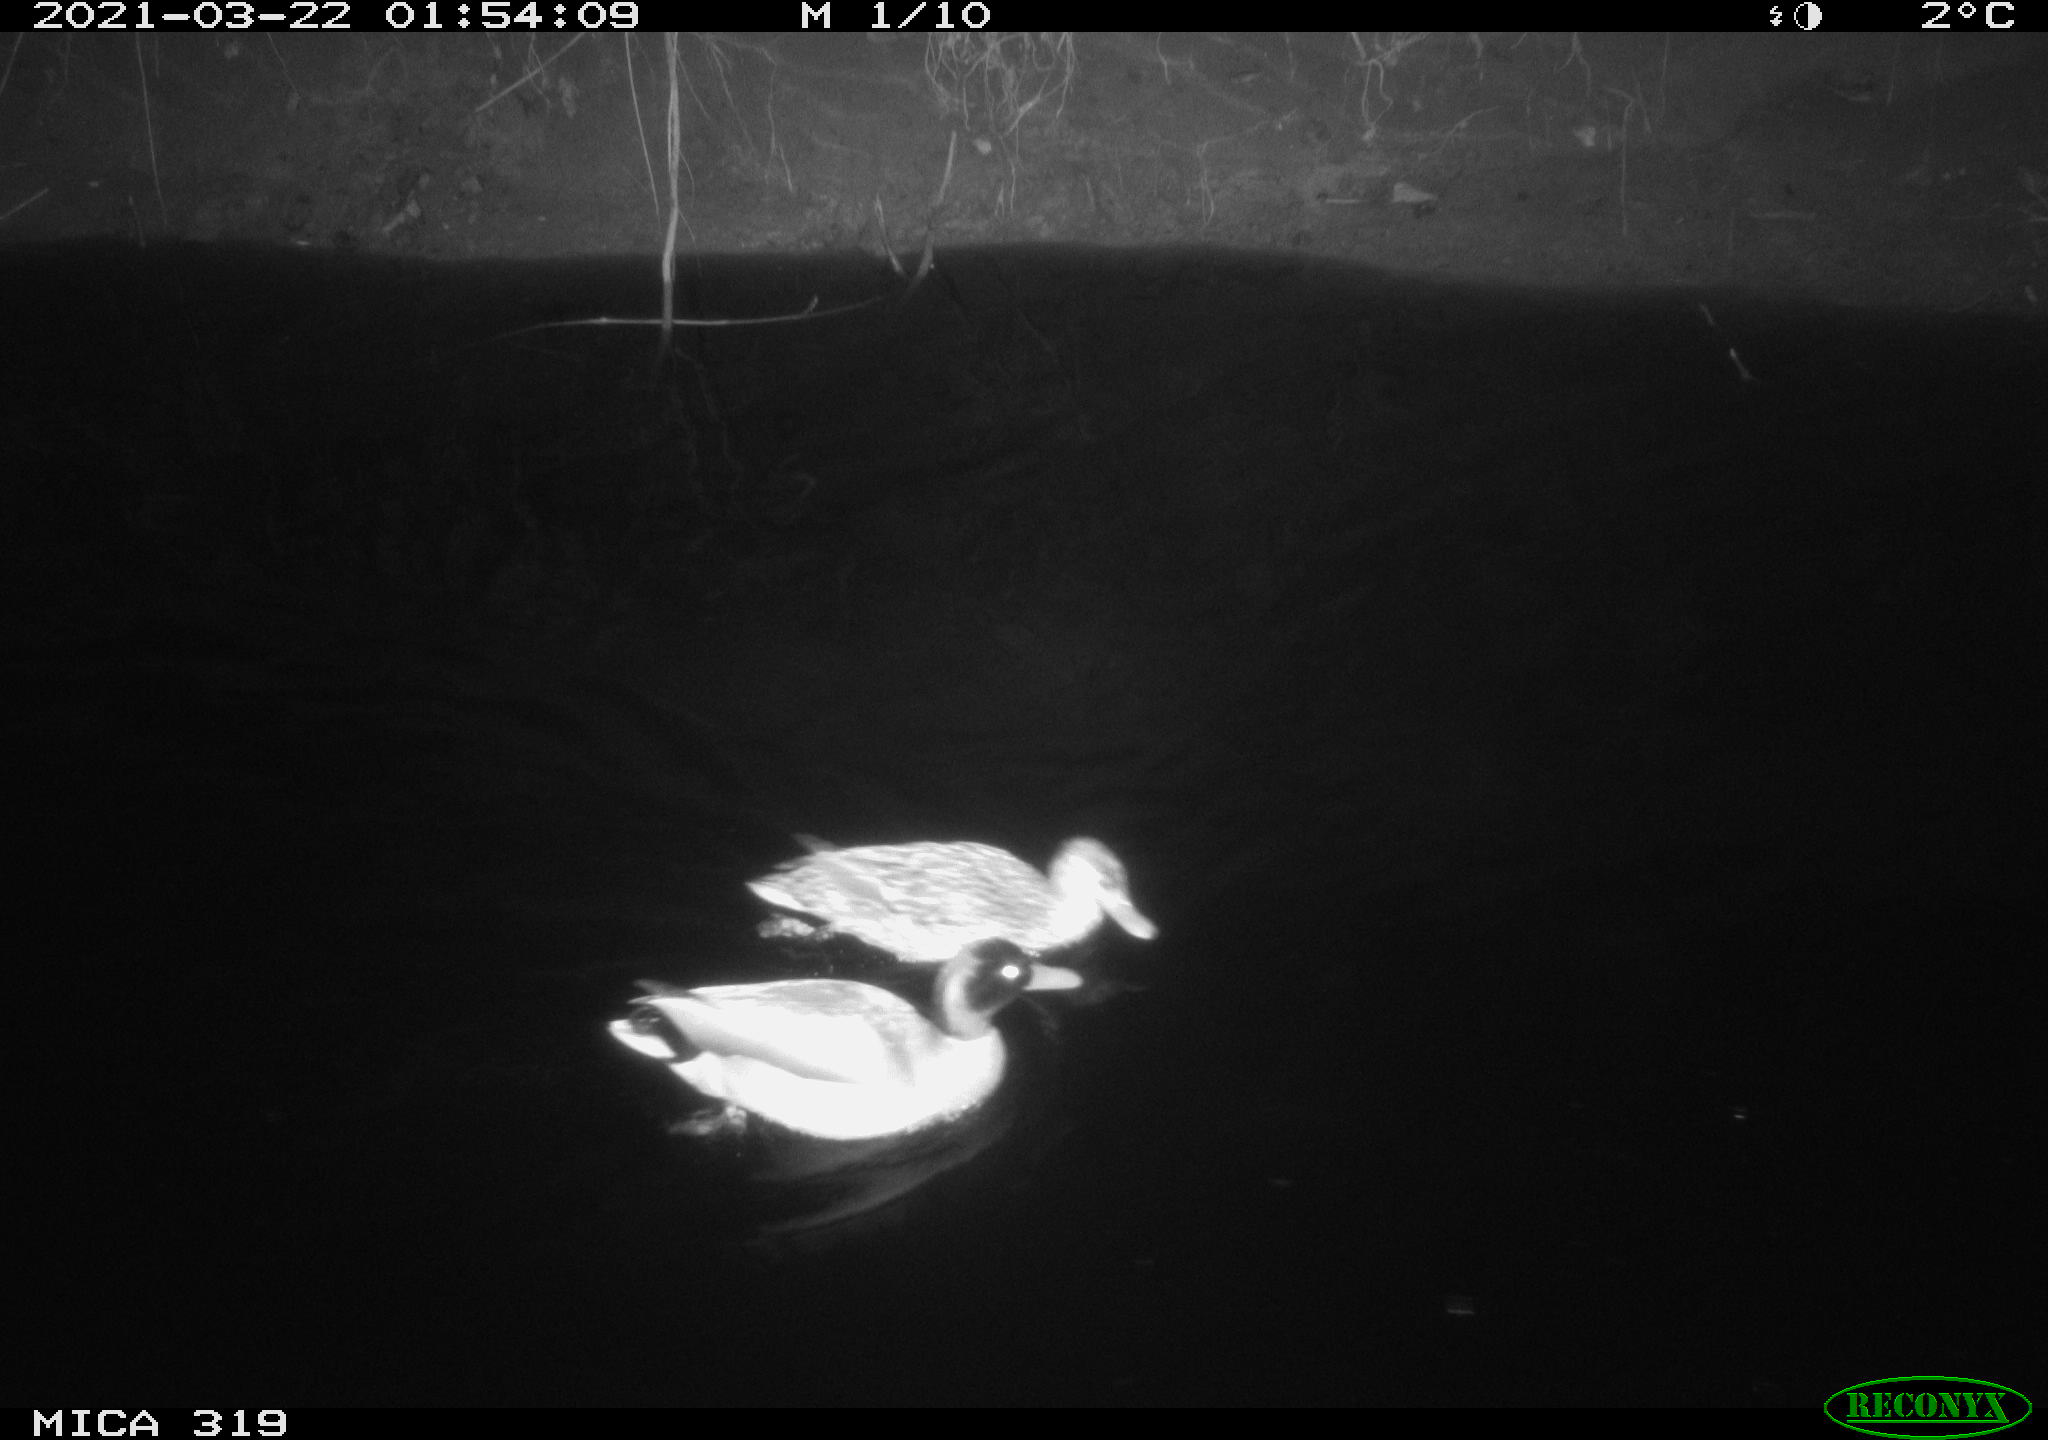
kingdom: Animalia
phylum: Chordata
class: Aves
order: Anseriformes
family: Anatidae
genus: Anas
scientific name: Anas platyrhynchos
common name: Mallard
